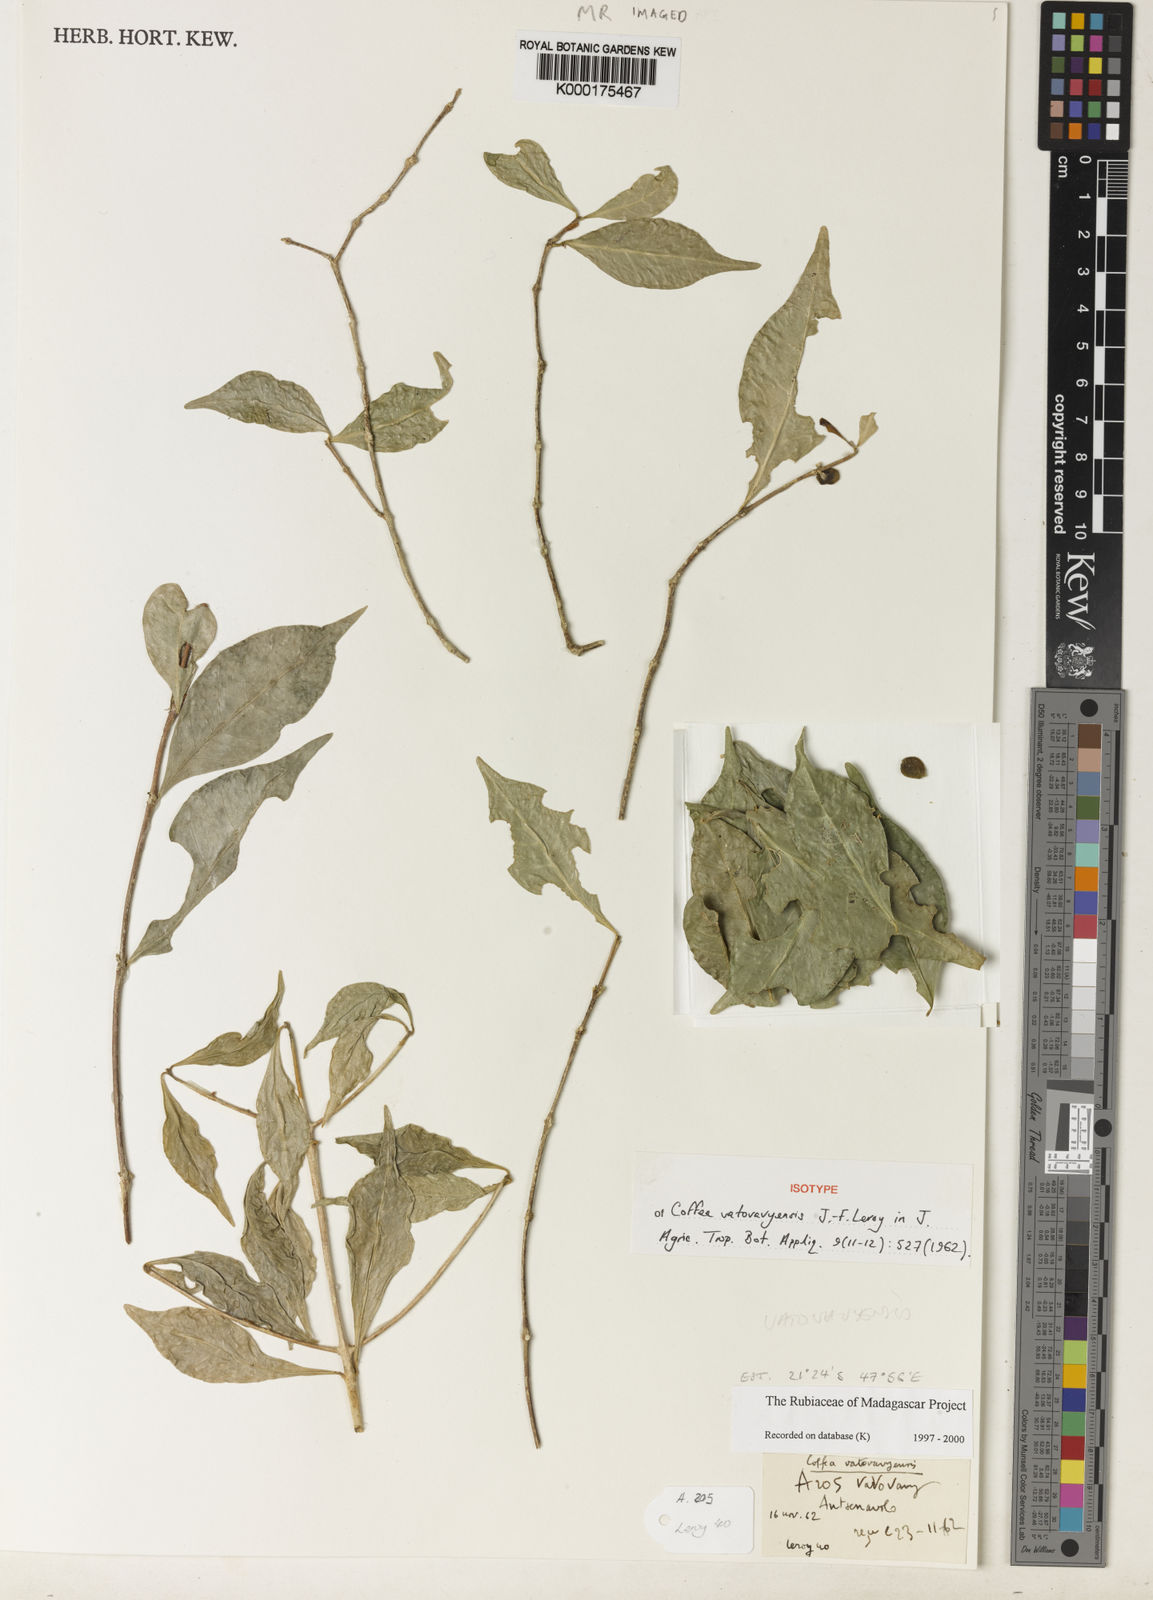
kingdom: Plantae
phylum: Tracheophyta
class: Magnoliopsida
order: Gentianales
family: Rubiaceae
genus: Coffea
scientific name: Coffea vatovavyensis
